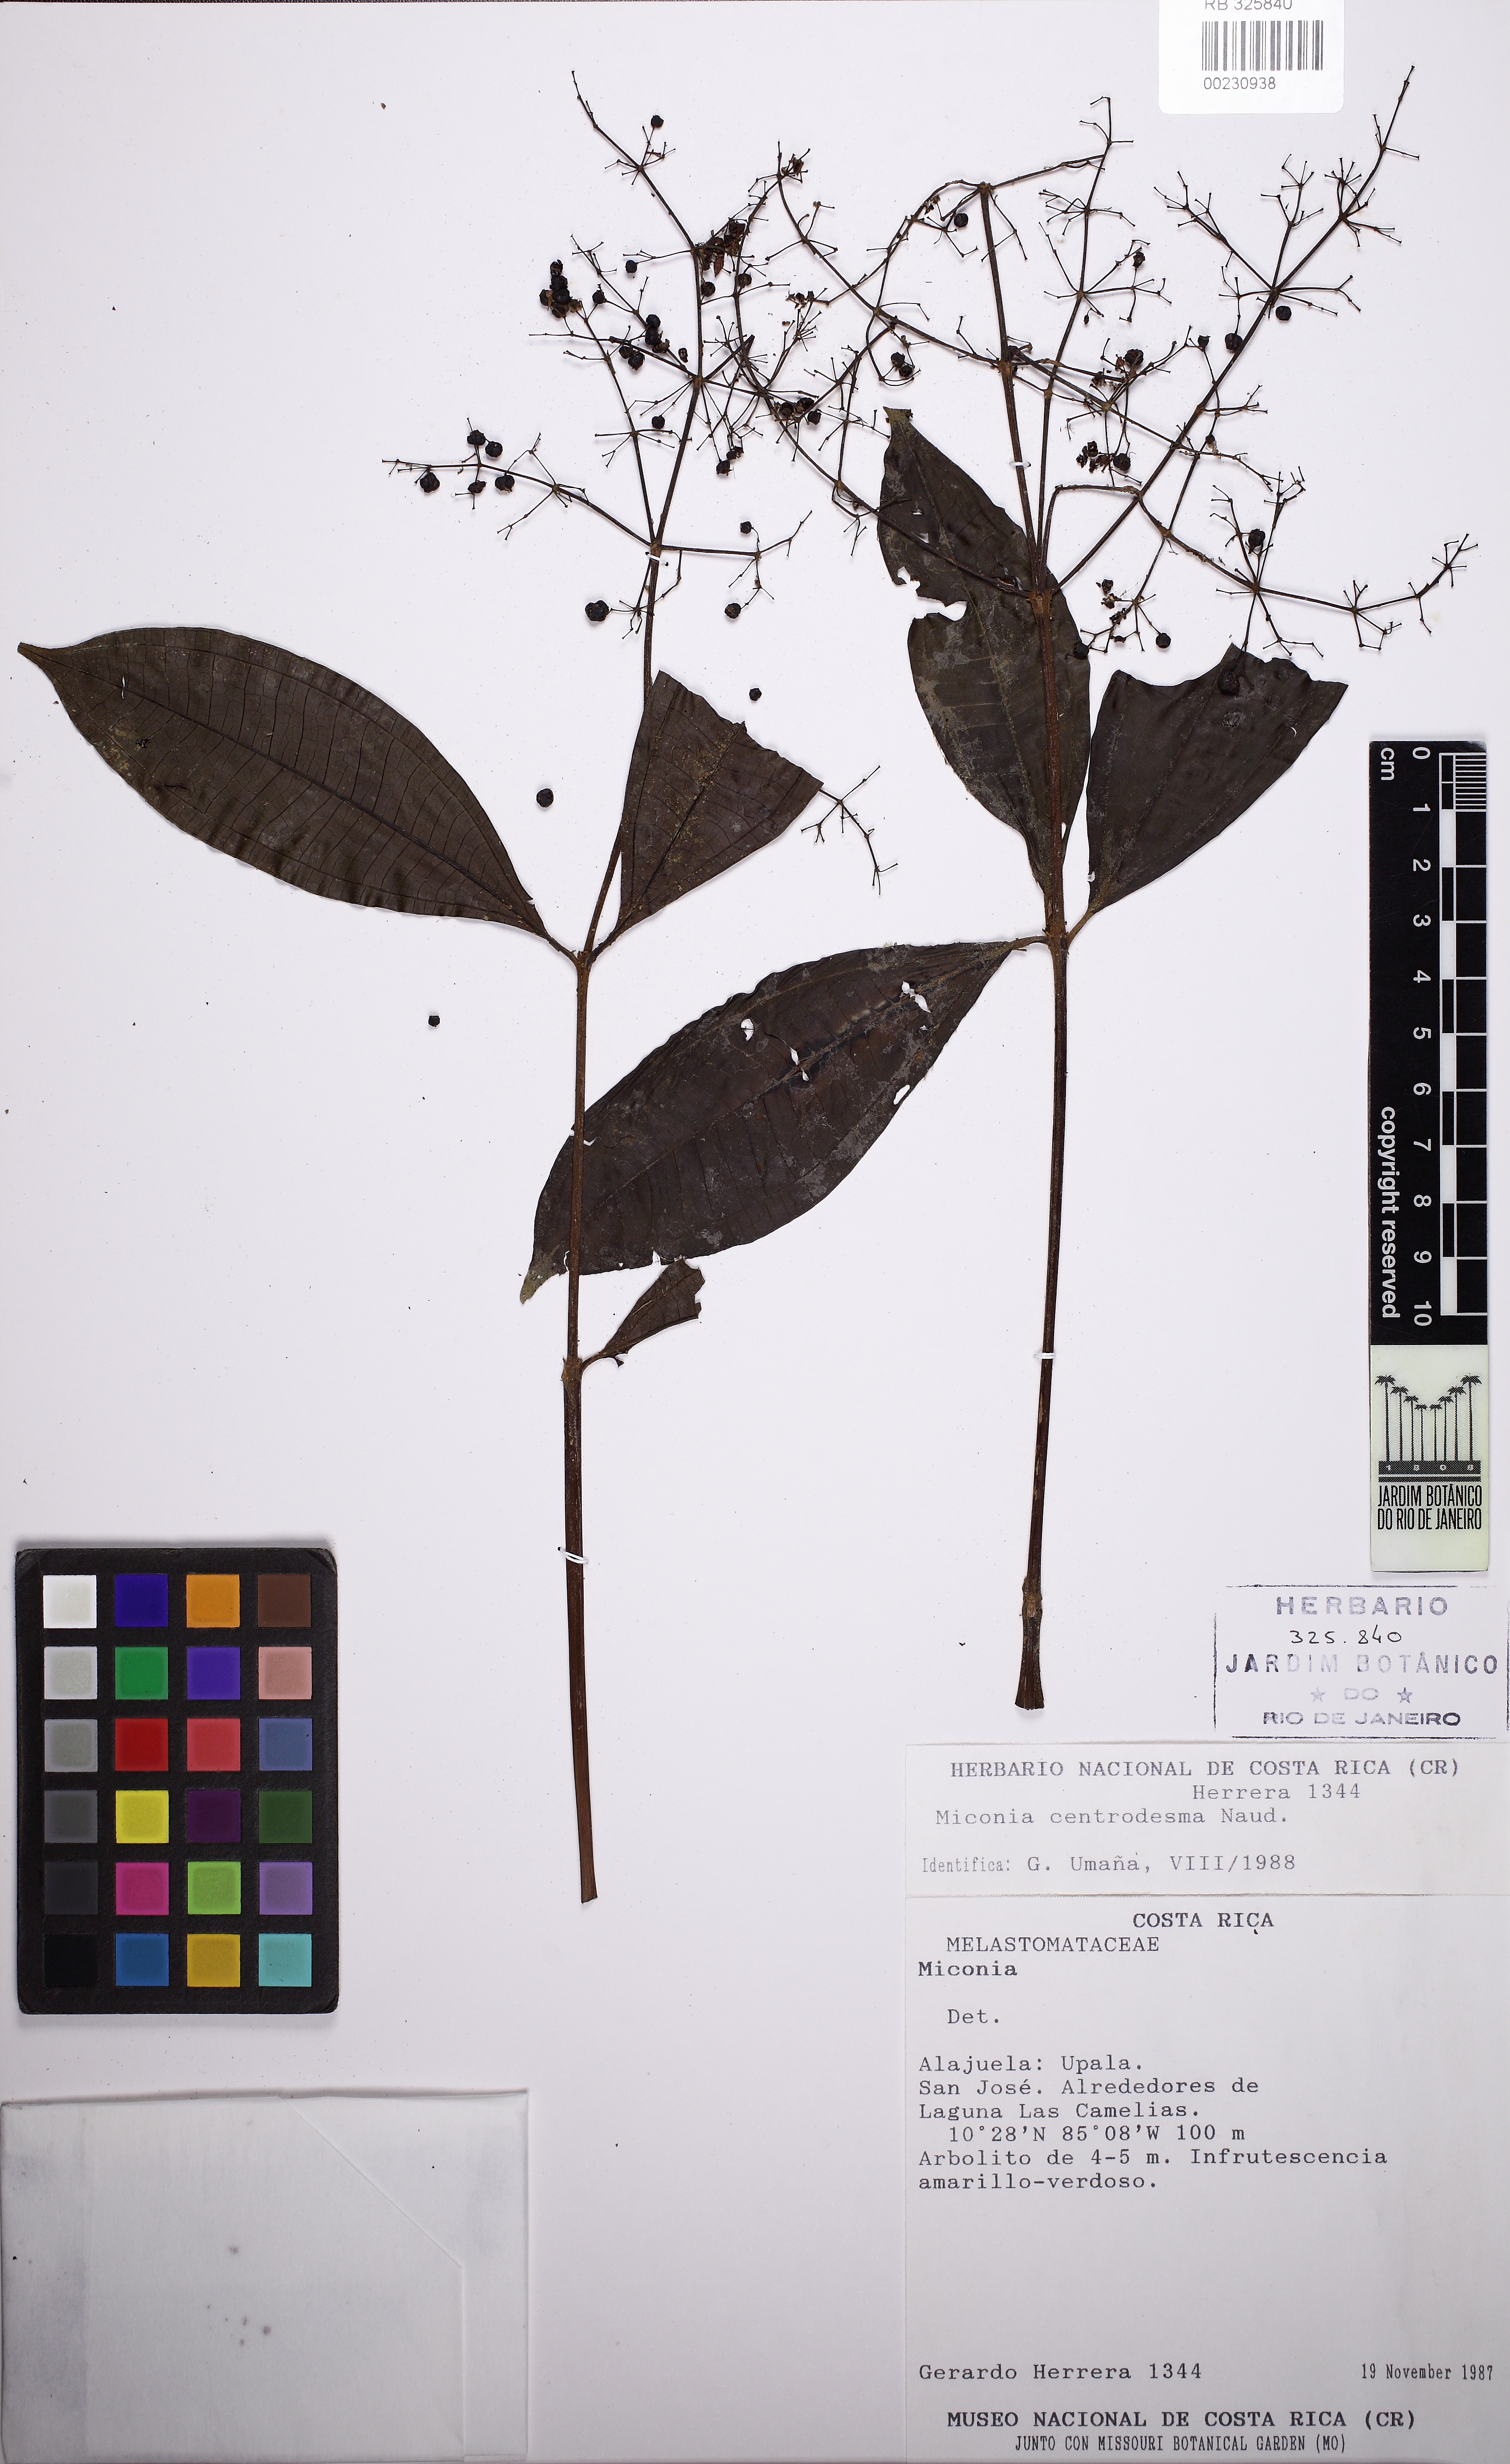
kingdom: Plantae
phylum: Tracheophyta
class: Magnoliopsida
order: Myrtales
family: Melastomataceae
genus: Miconia
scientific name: Miconia
